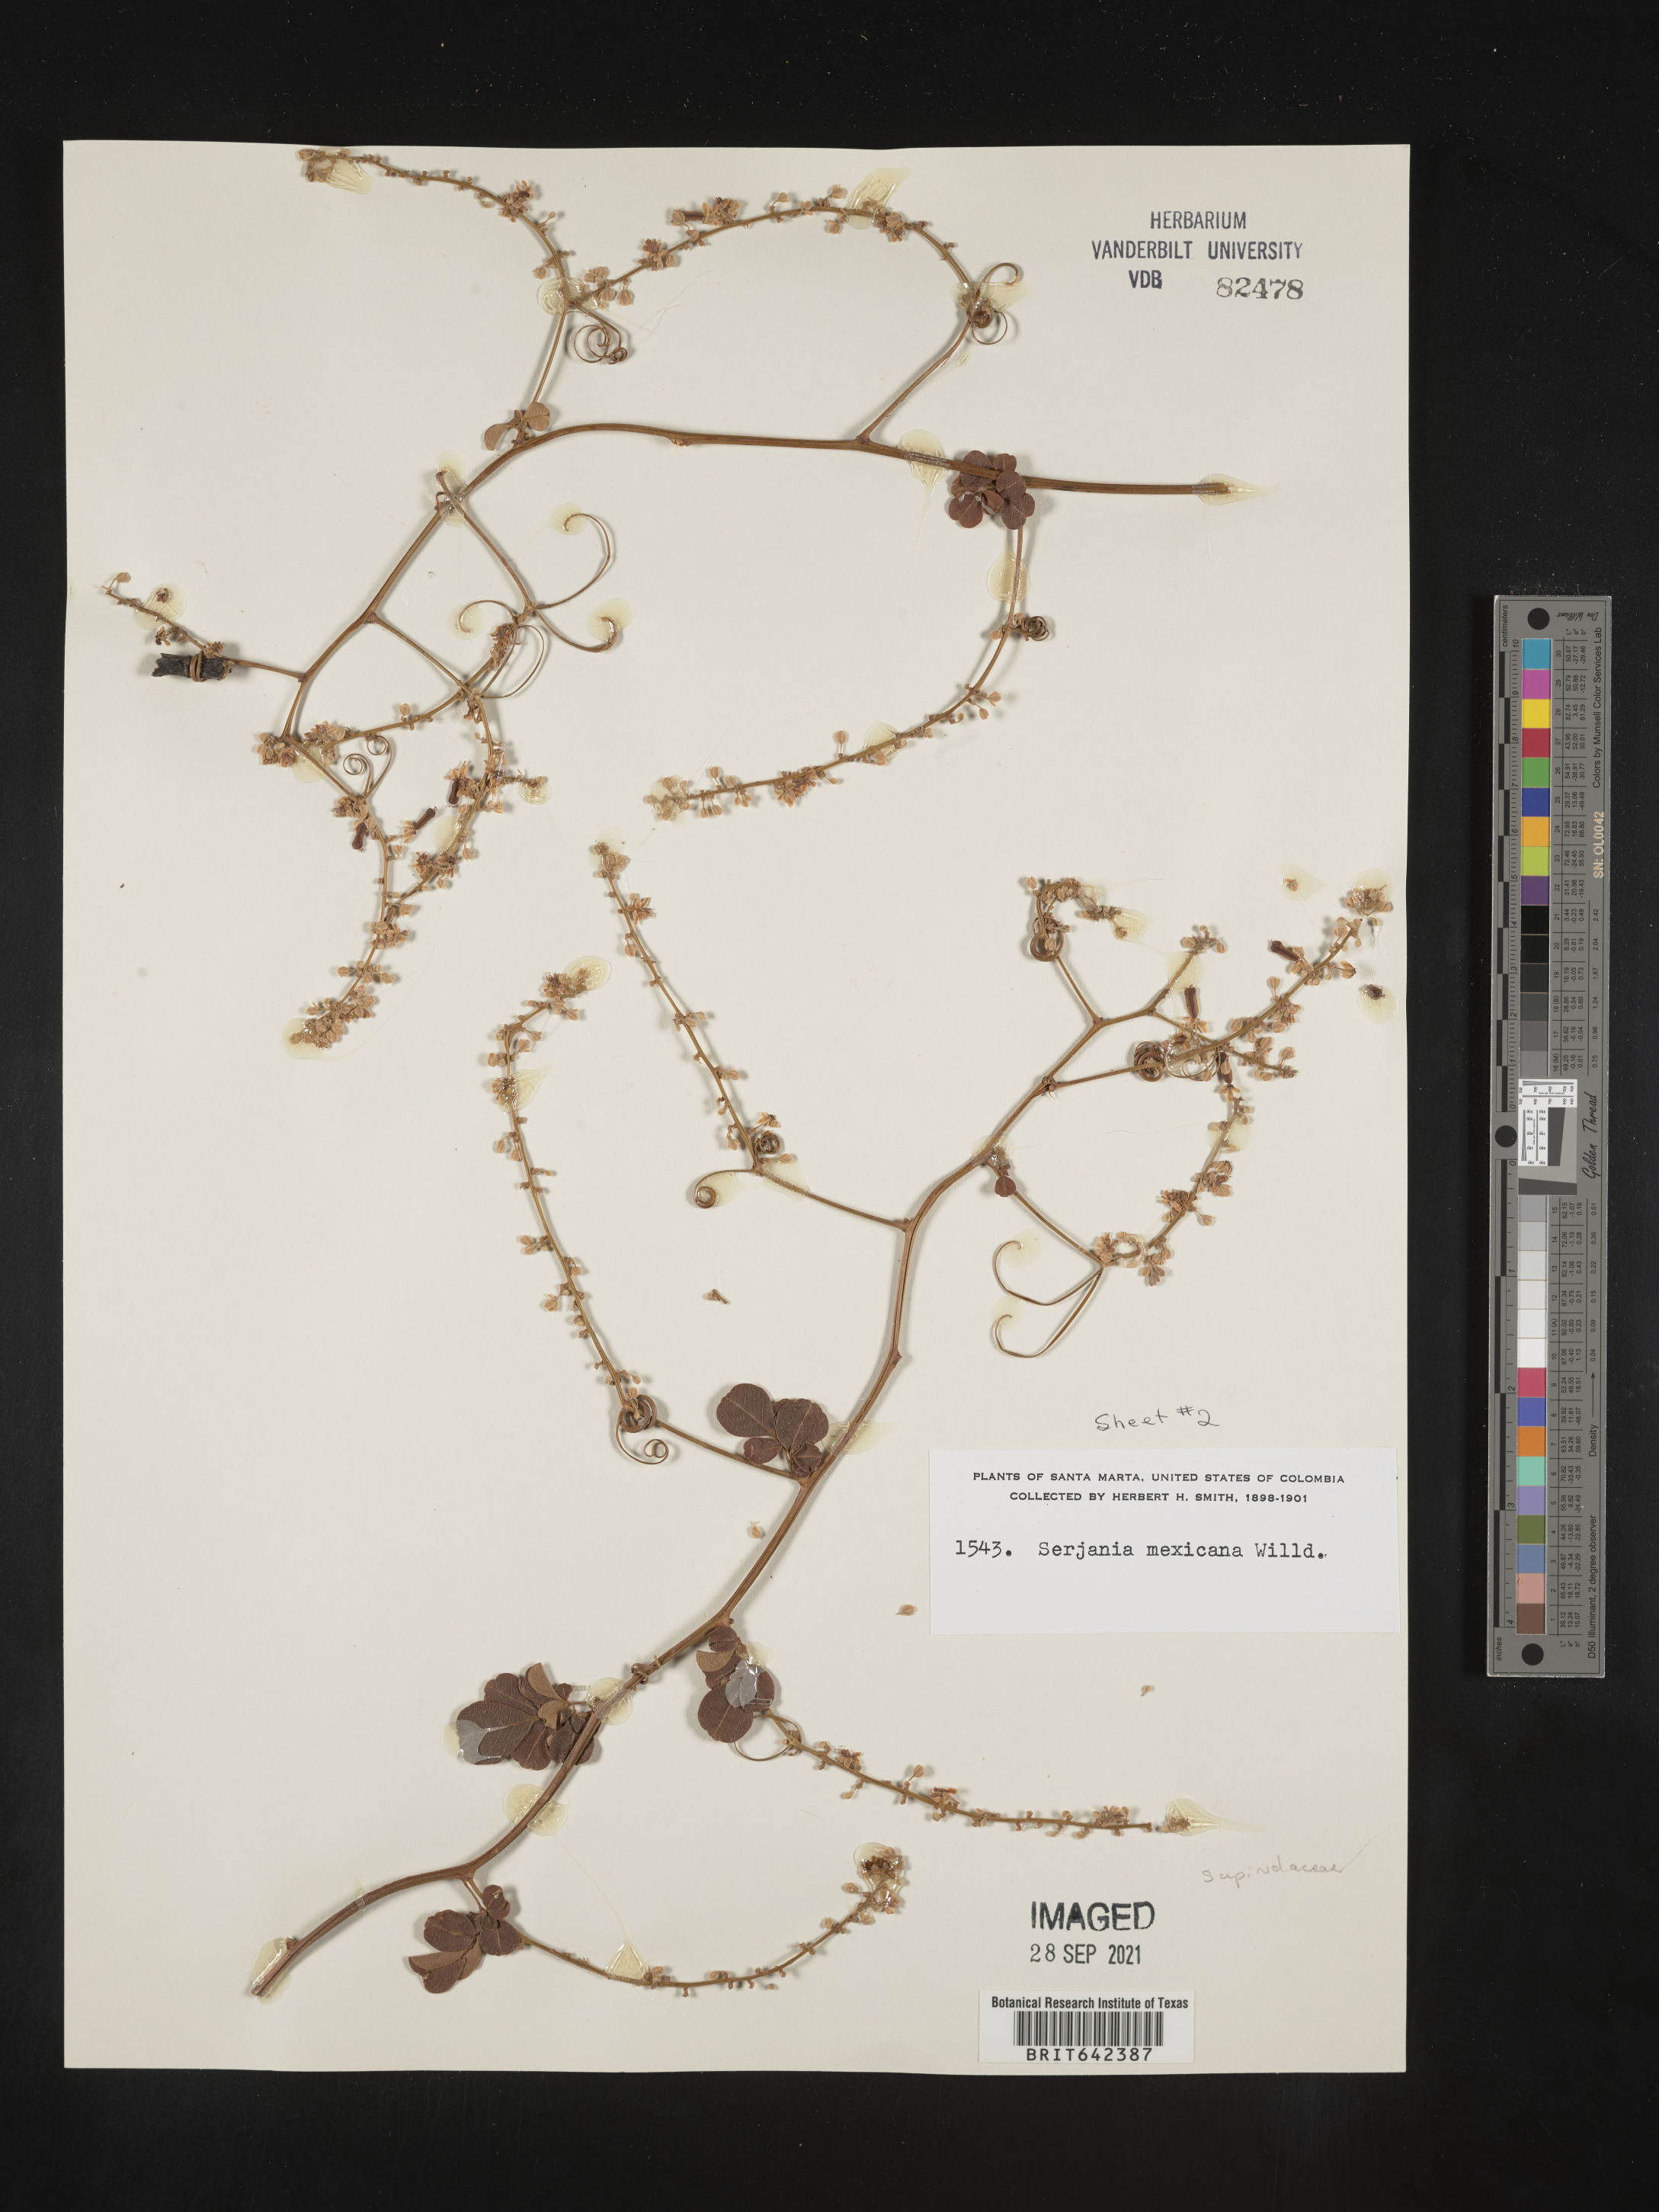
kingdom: Plantae
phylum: Tracheophyta
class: Magnoliopsida
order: Sapindales
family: Sapindaceae
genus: Serjania
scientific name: Serjania
